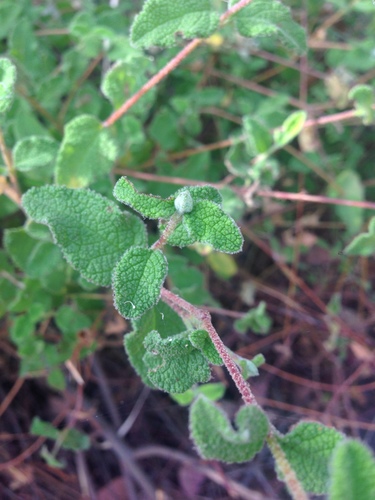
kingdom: Plantae
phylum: Tracheophyta
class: Magnoliopsida
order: Malvales
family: Cistaceae
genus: Cistus
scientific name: Cistus salviifolius
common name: Salvia cistus
